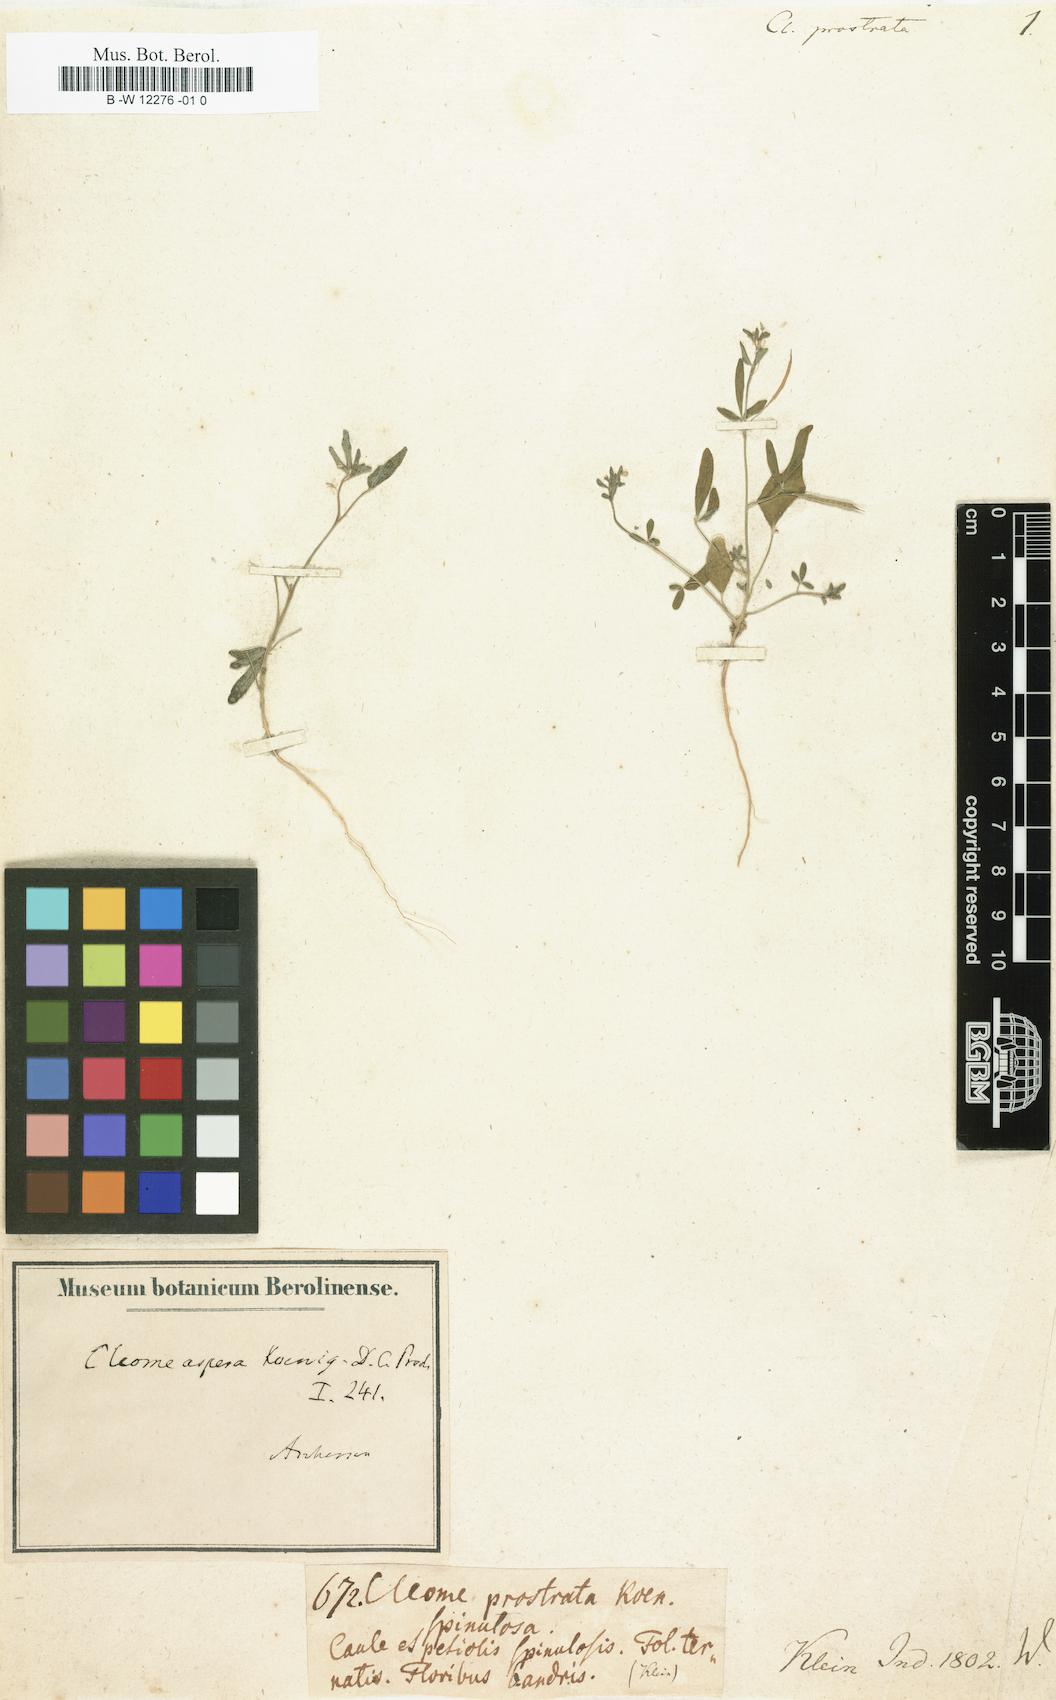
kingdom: Plantae
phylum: Tracheophyta
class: Magnoliopsida
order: Fabales
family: Fabaceae
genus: Rothia
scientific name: Rothia indica
